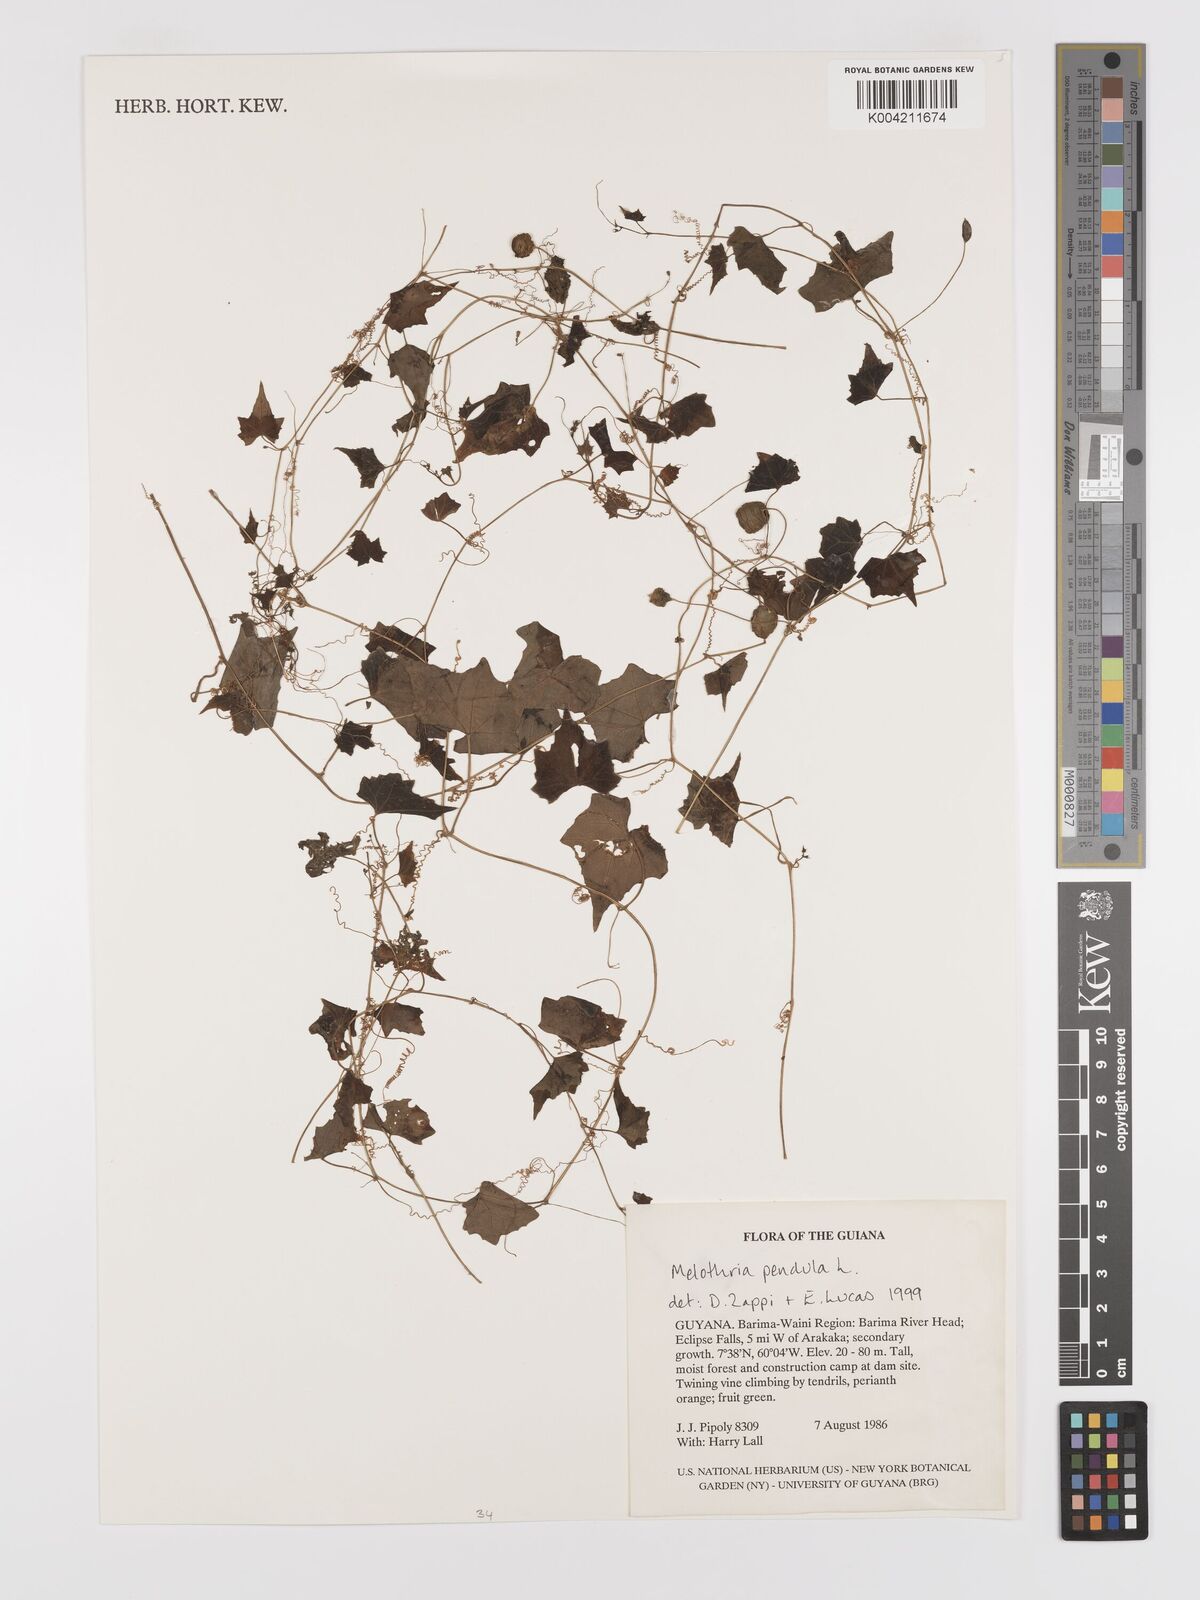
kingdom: Plantae
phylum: Tracheophyta
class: Magnoliopsida
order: Cucurbitales
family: Cucurbitaceae
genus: Melothria
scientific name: Melothria pendula
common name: Creeping-cucumber
